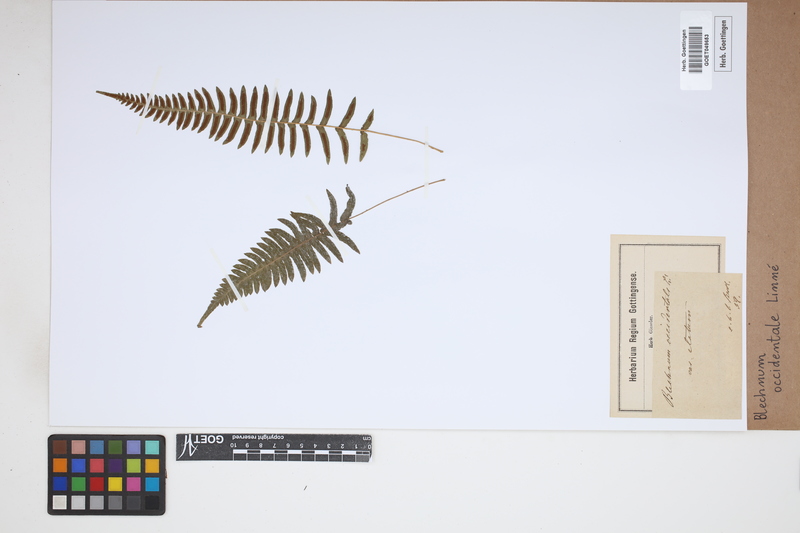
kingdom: Plantae
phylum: Tracheophyta
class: Polypodiopsida
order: Polypodiales
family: Blechnaceae
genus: Blechnum
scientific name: Blechnum occidentale
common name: Hammock fern
